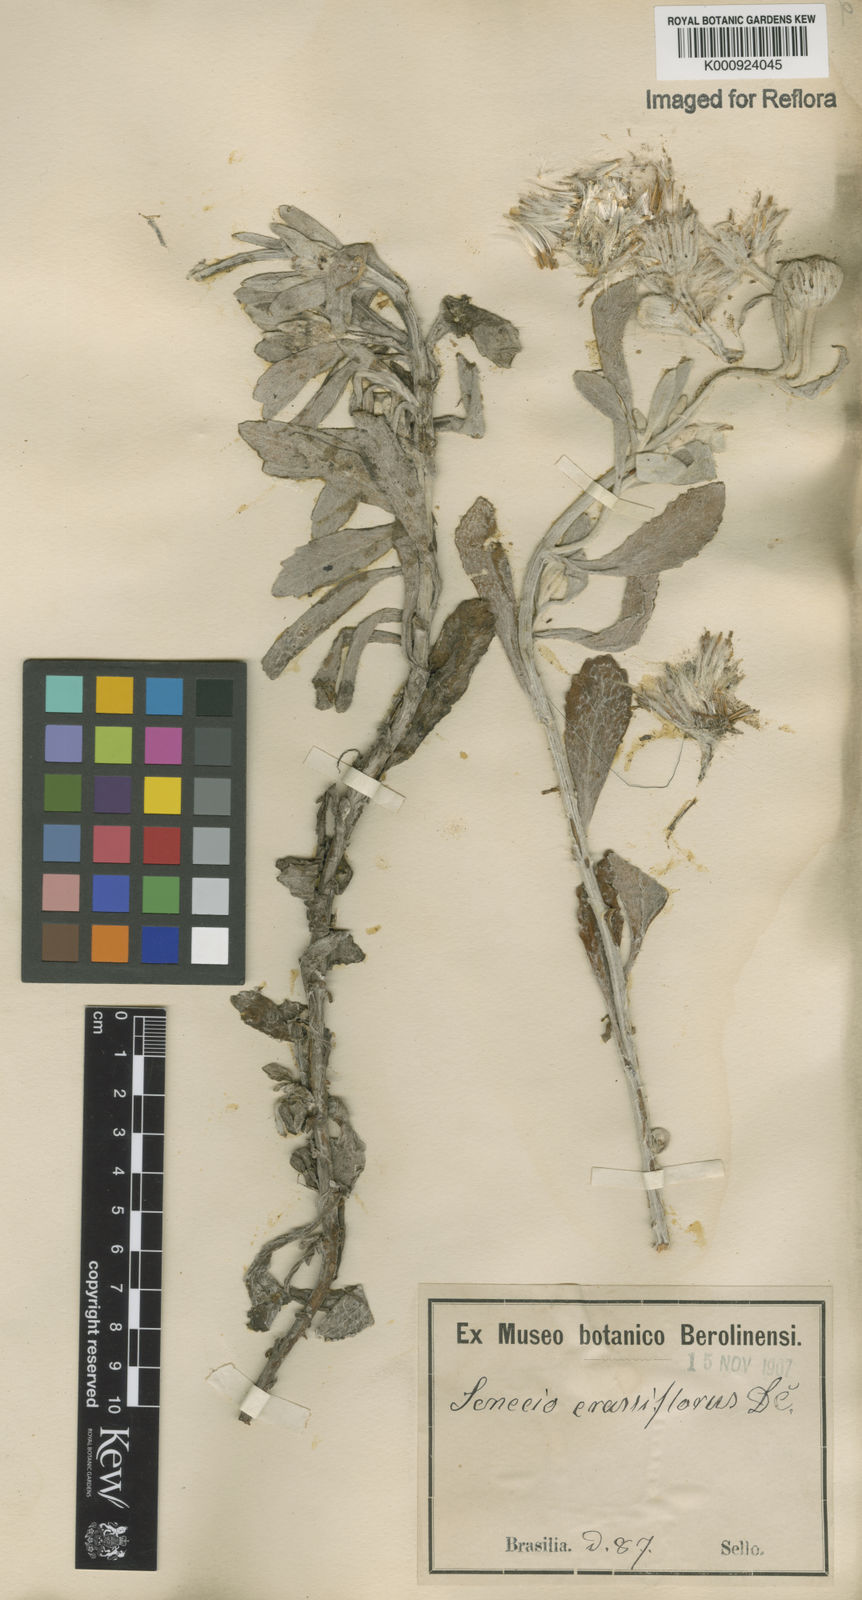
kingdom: Plantae
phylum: Tracheophyta
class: Magnoliopsida
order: Asterales
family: Asteraceae
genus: Senecio
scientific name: Senecio crassiflorus
